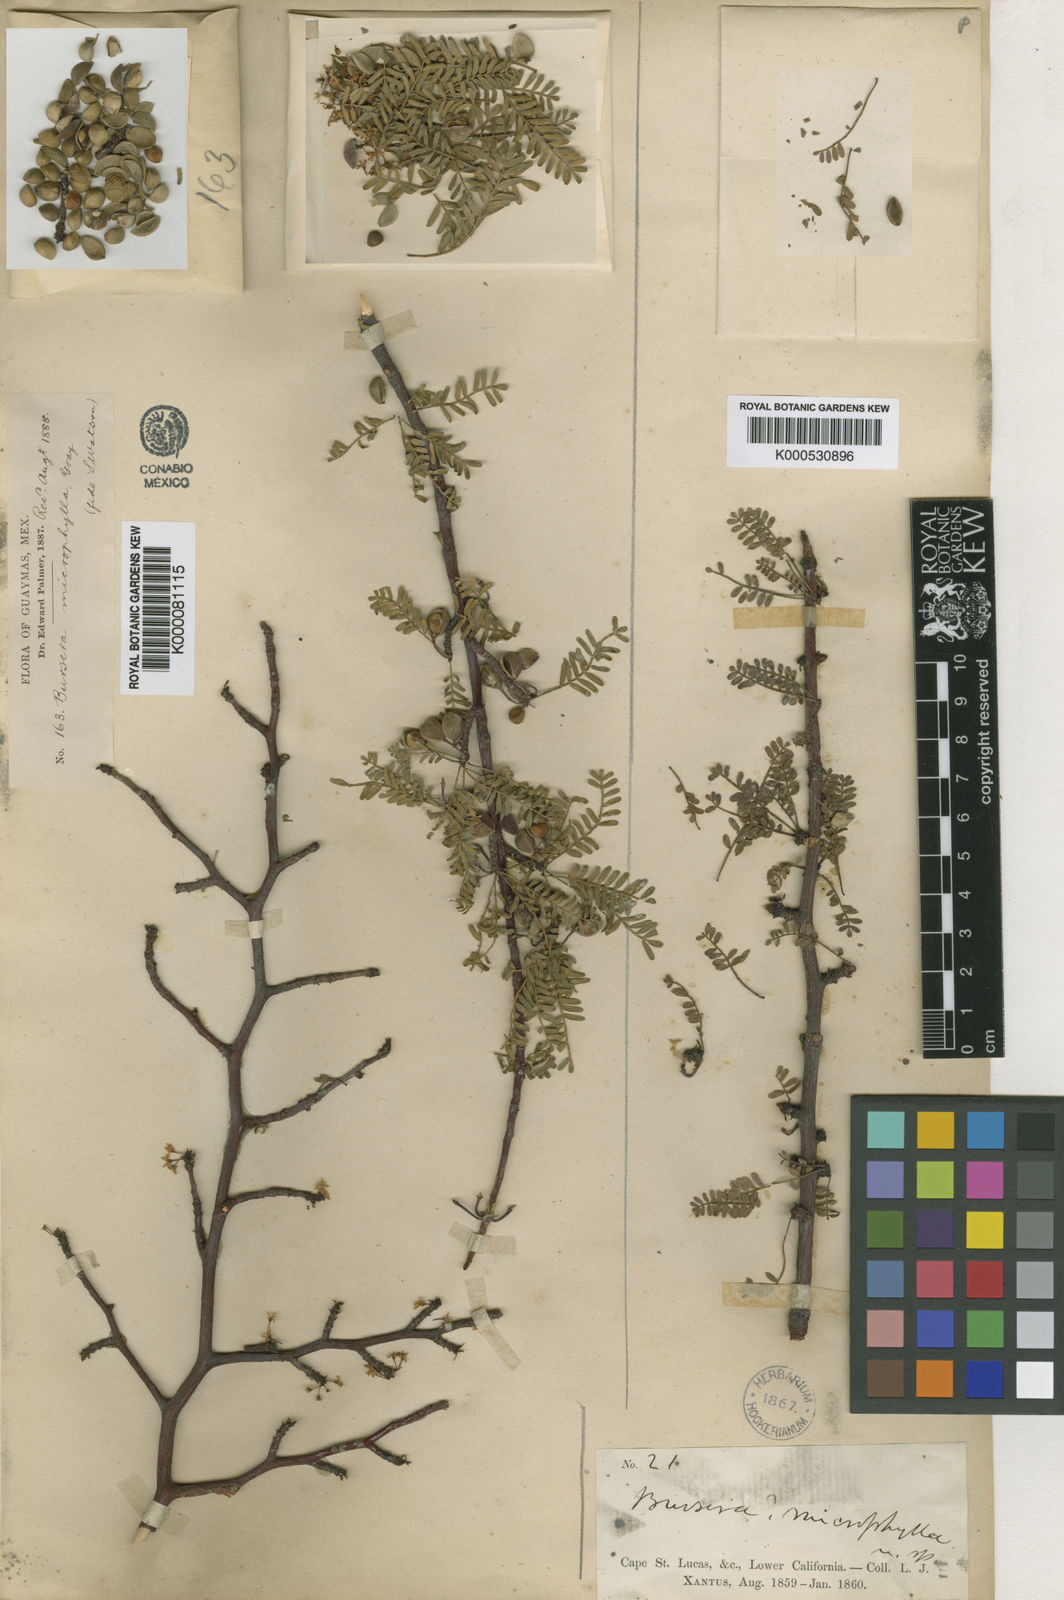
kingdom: Plantae
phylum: Tracheophyta
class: Magnoliopsida
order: Sapindales
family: Burseraceae
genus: Bursera
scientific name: Bursera microphylla
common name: Elephant tree
